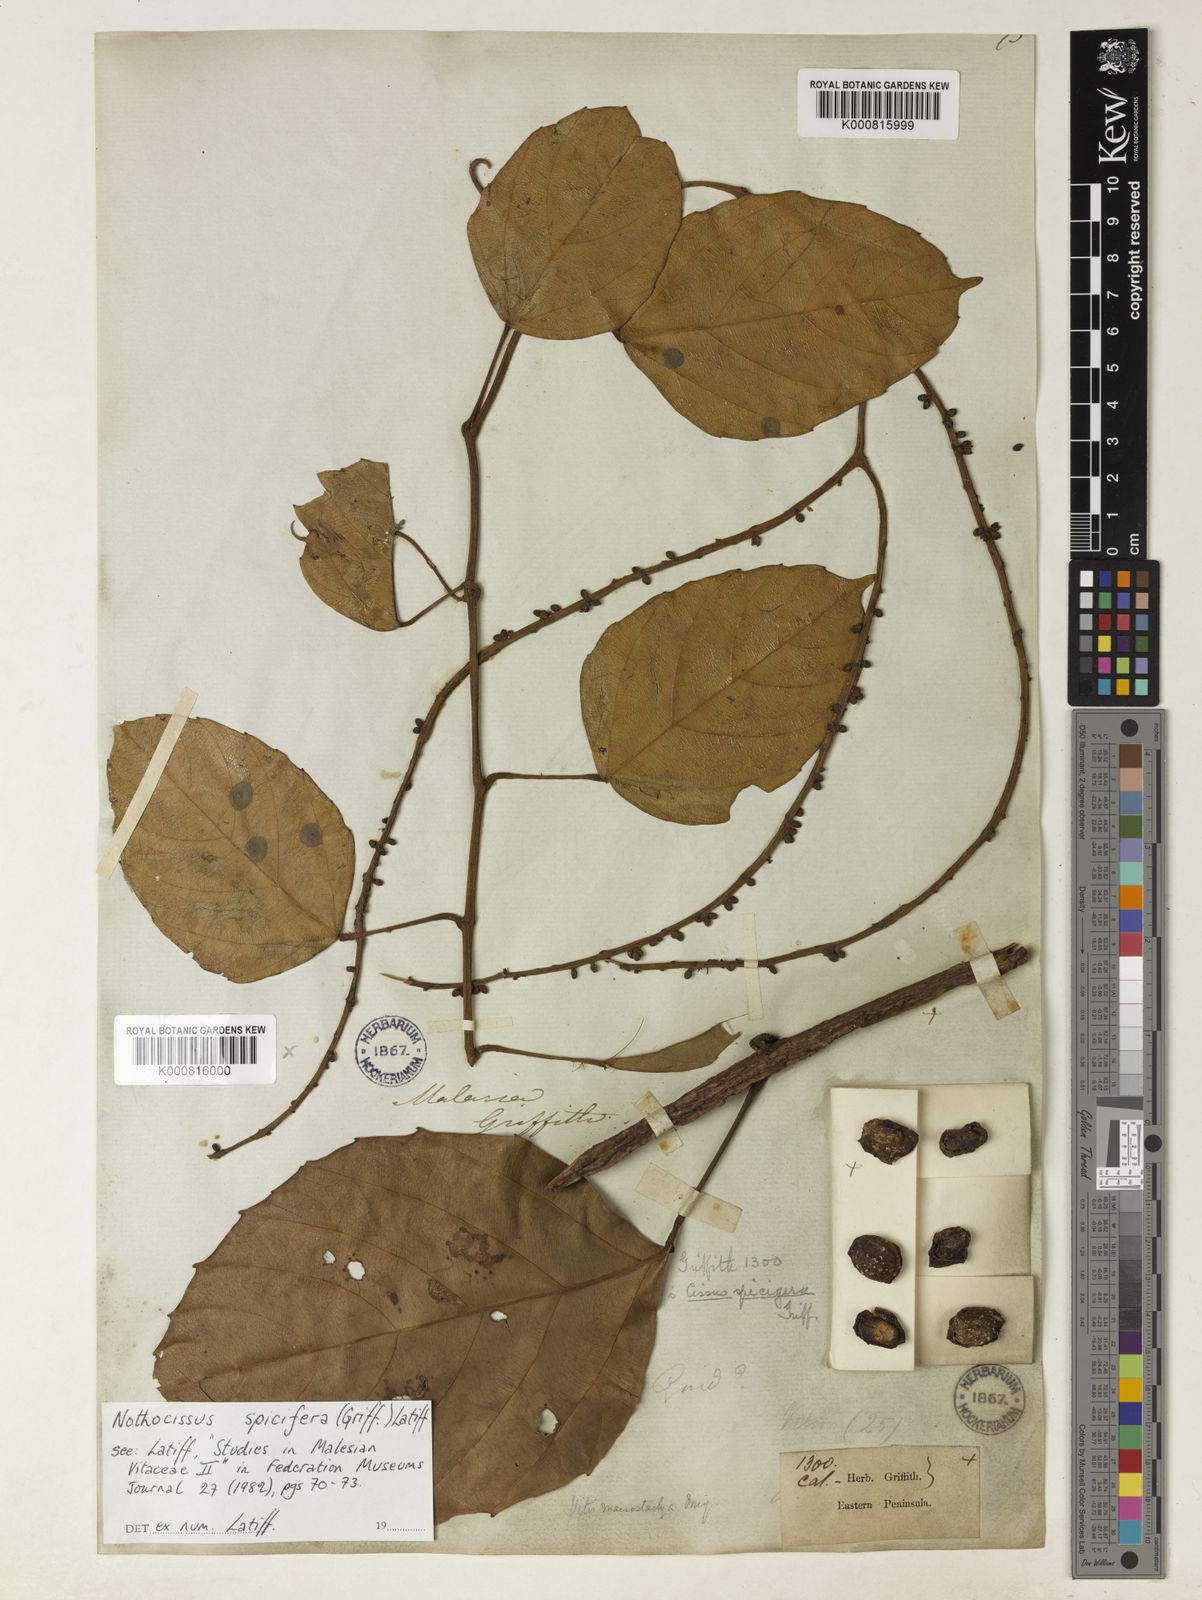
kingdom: Plantae
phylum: Tracheophyta
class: Magnoliopsida
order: Vitales
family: Vitaceae
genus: Nothocissus
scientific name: Nothocissus spicifera
